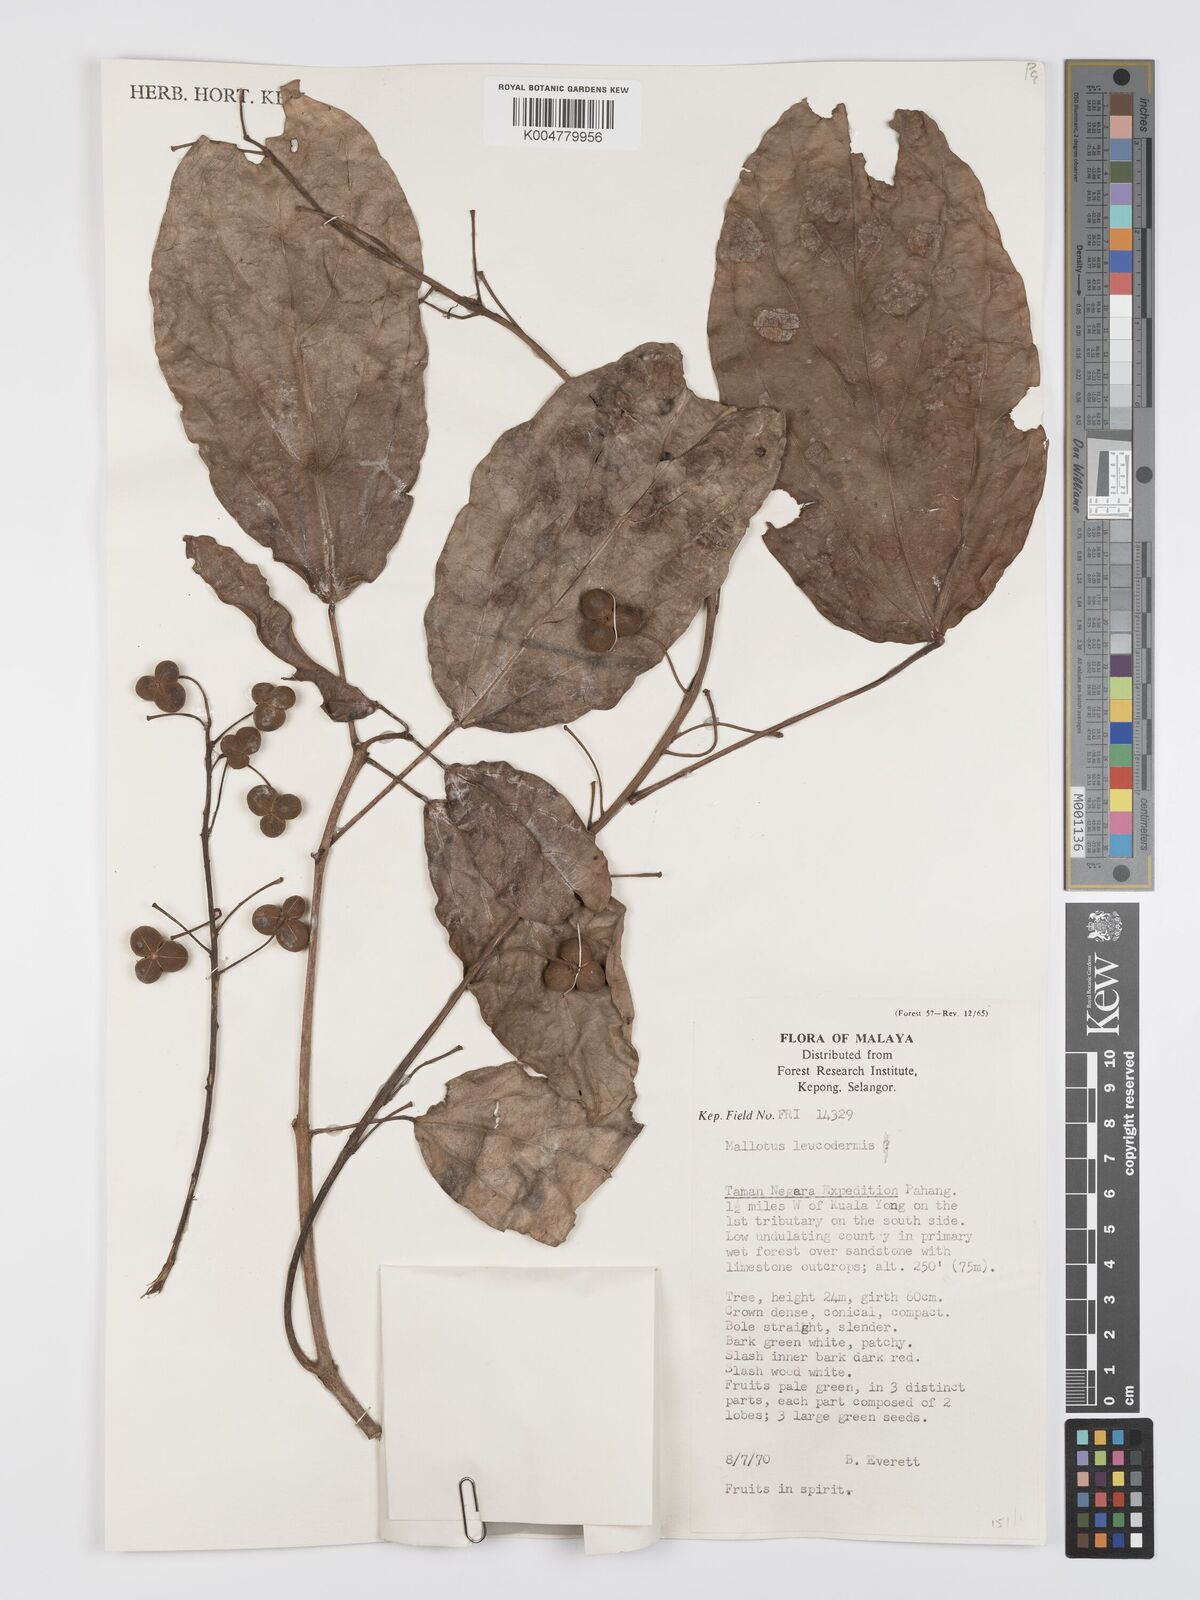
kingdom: Plantae
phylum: Tracheophyta
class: Magnoliopsida
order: Malpighiales
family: Euphorbiaceae
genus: Mallotus
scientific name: Mallotus leucodermis
